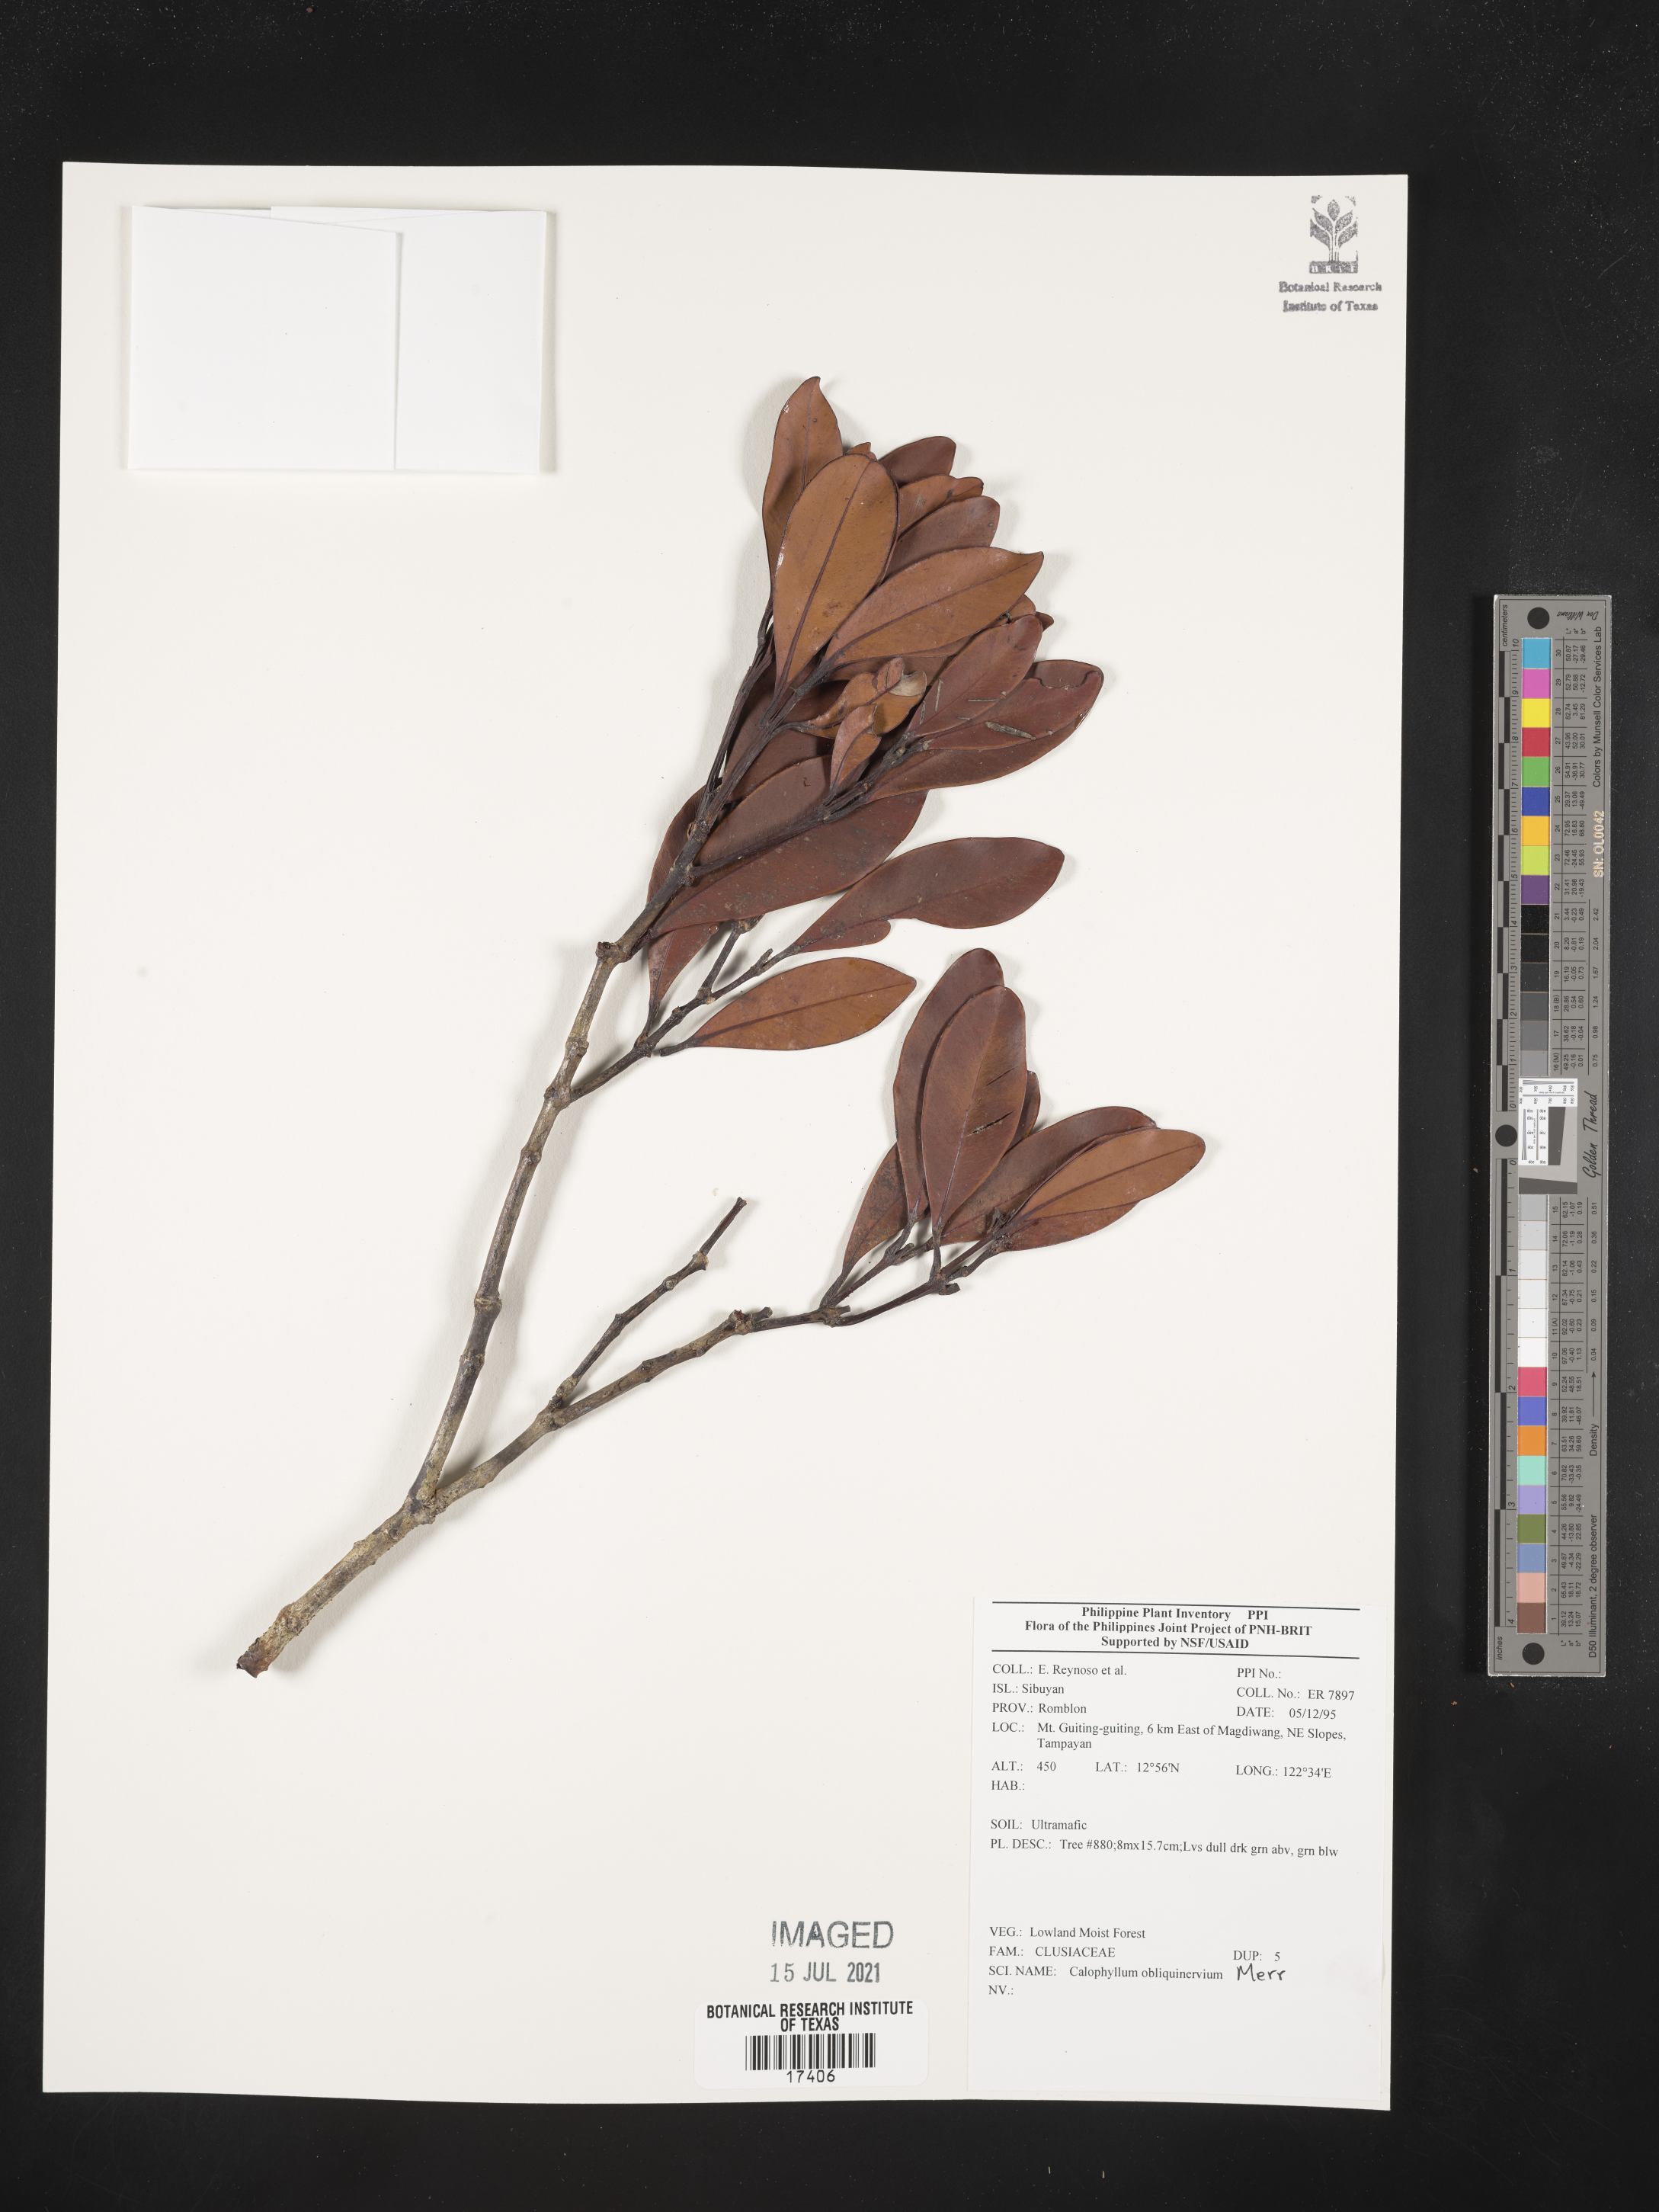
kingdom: Plantae
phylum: Tracheophyta
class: Magnoliopsida
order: Malpighiales
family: Calophyllaceae
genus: Calophyllum
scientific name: Calophyllum obliquinervium
